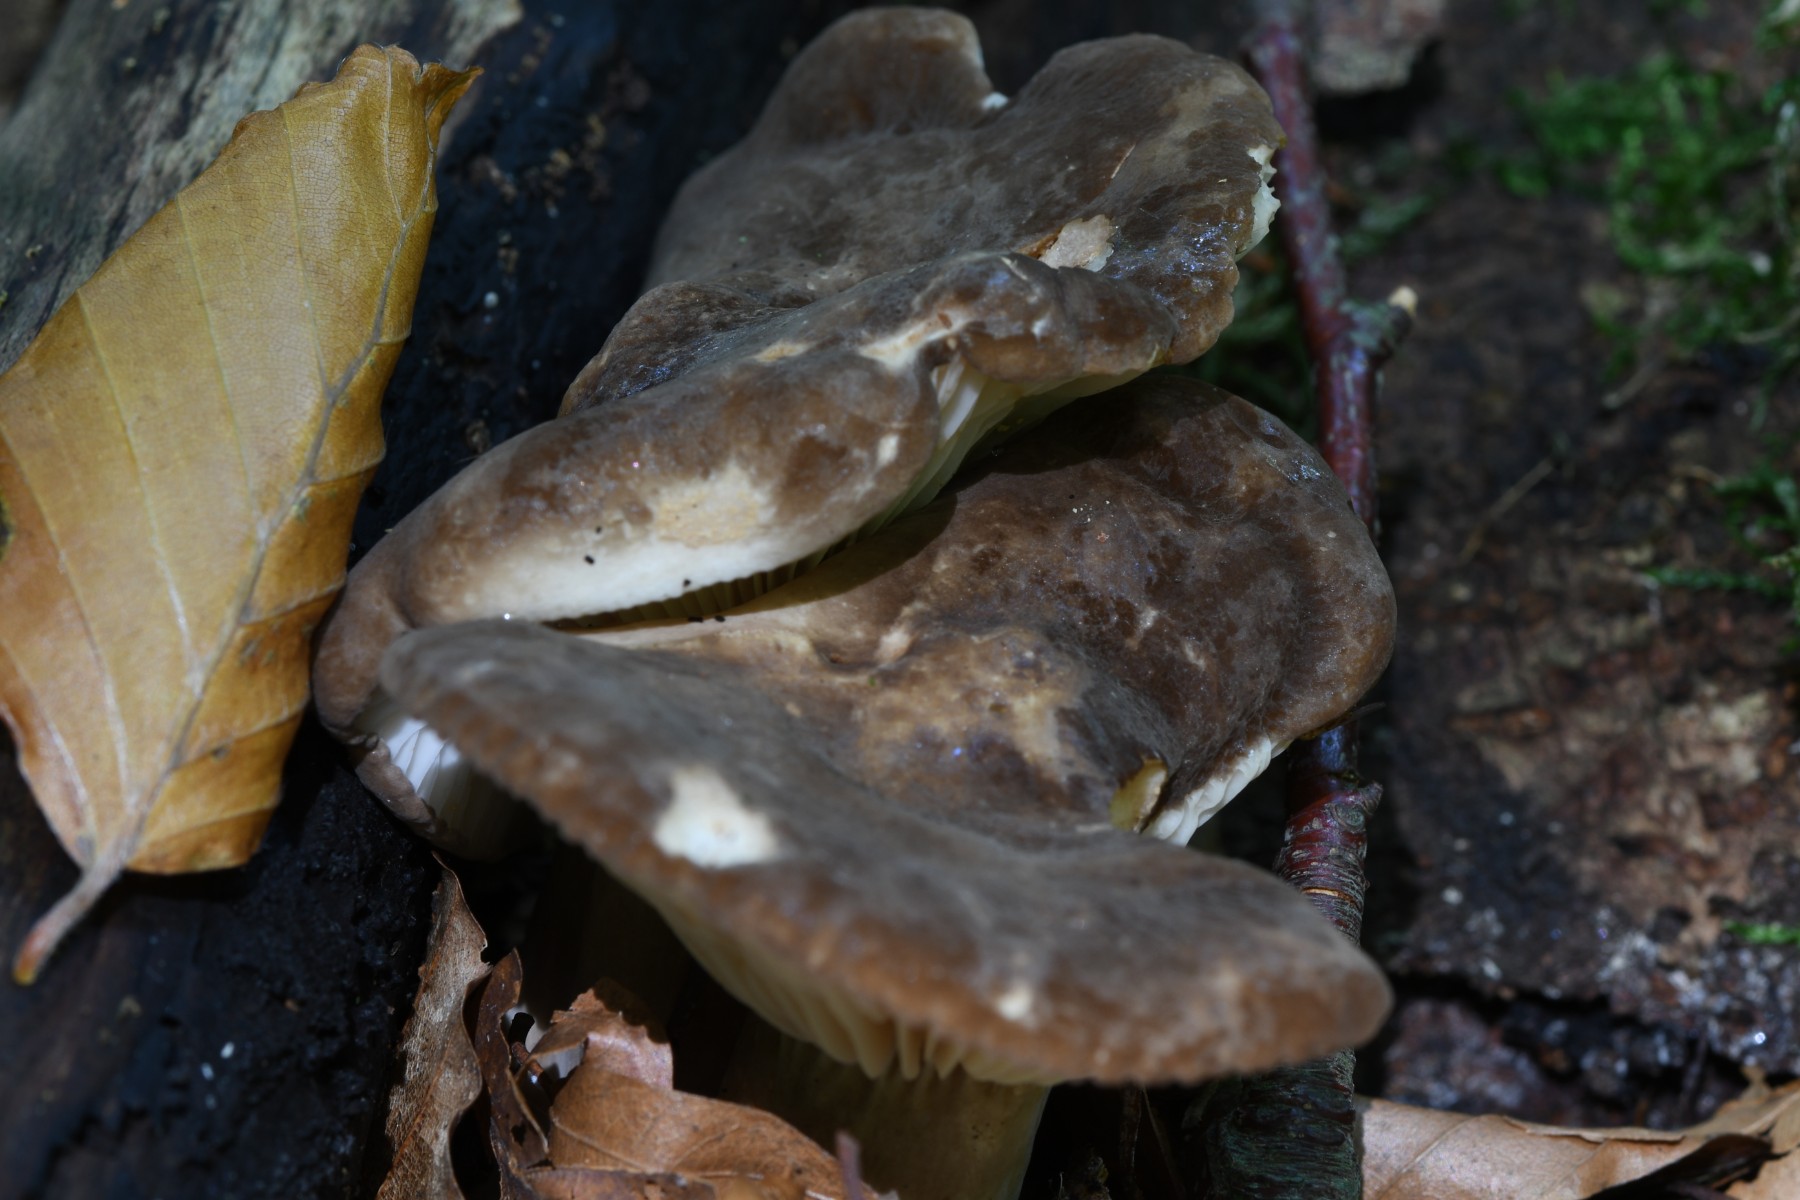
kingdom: Fungi
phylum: Basidiomycota
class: Agaricomycetes
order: Russulales
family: Russulaceae
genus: Lactarius
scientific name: Lactarius romagnesii
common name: fjernbladet mælkehat
